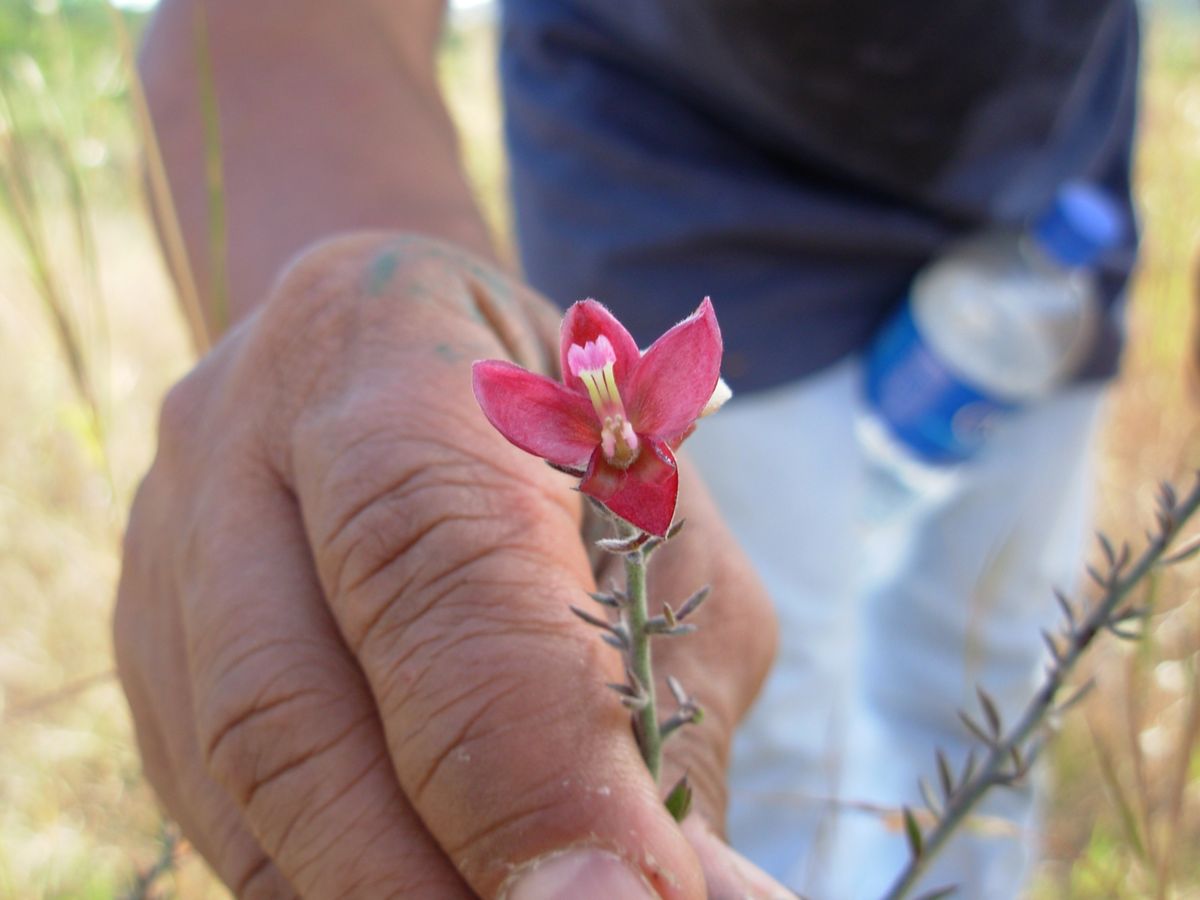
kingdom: Plantae
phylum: Tracheophyta
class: Magnoliopsida
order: Zygophyllales
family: Krameriaceae
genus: Krameria
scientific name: Krameria ixine
